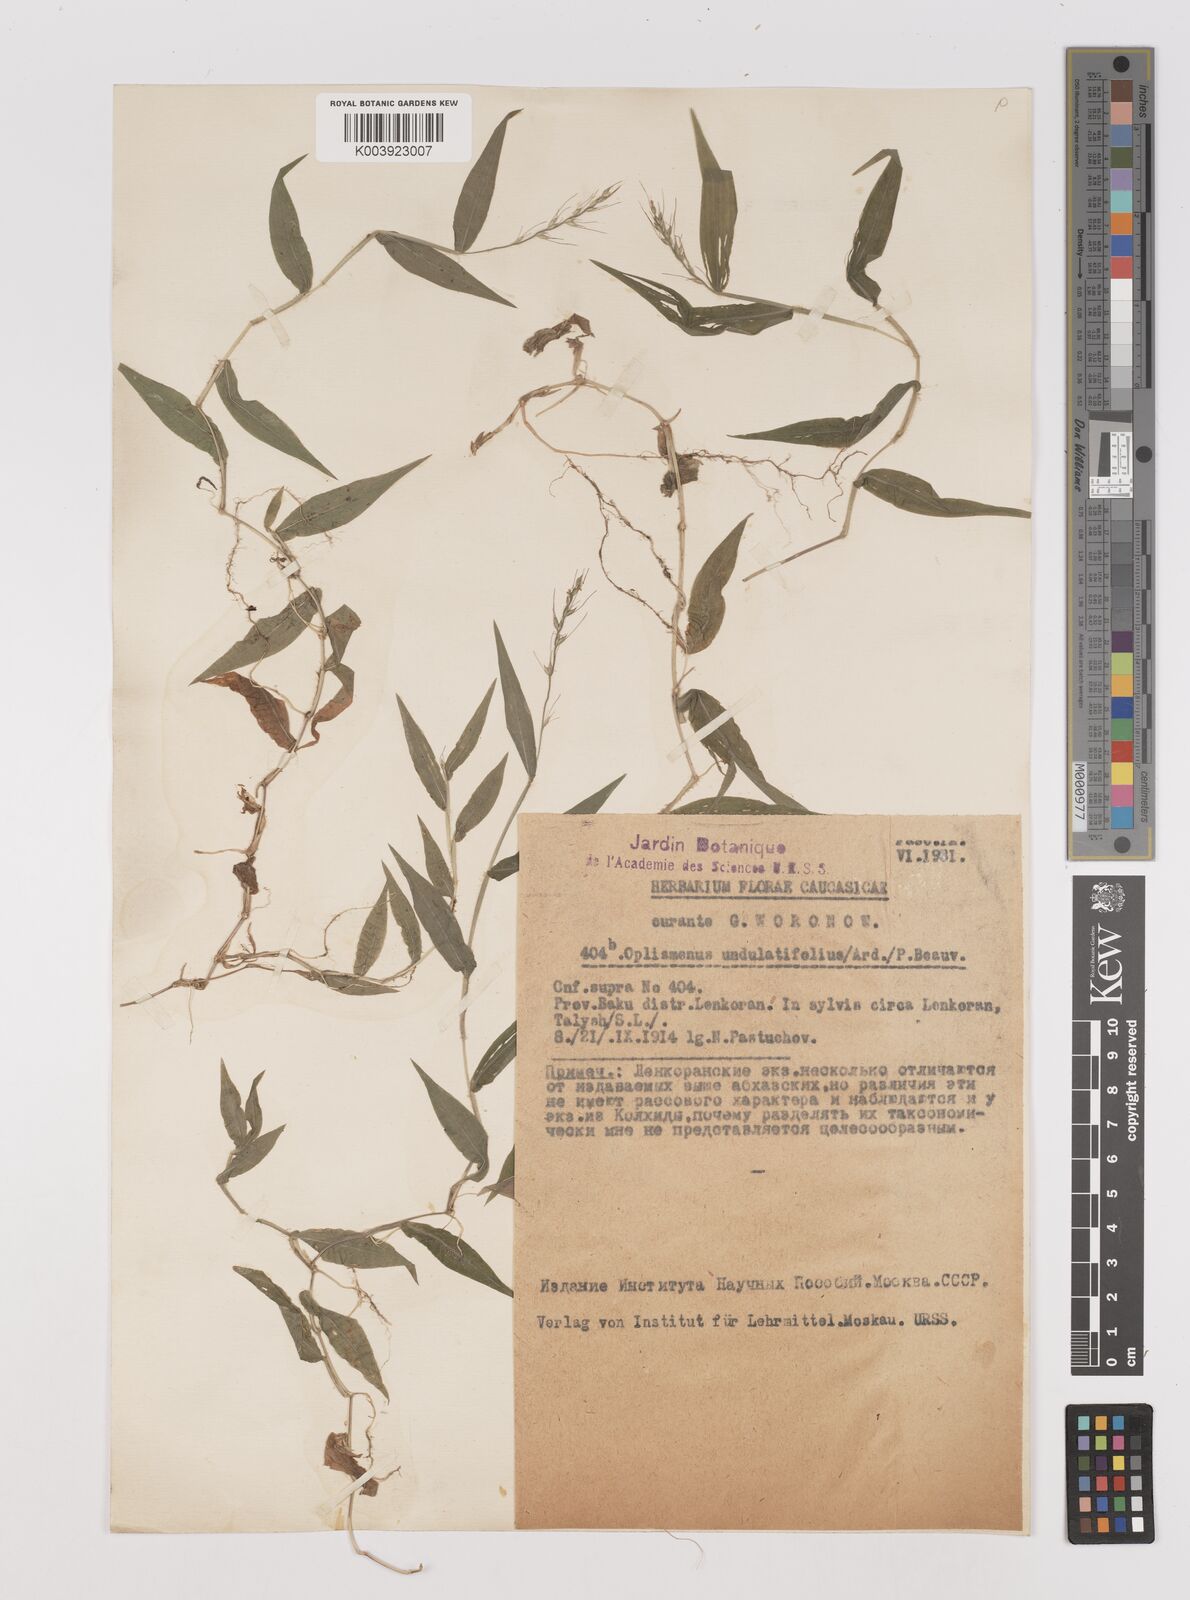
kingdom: Plantae
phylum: Tracheophyta
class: Liliopsida
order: Poales
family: Poaceae
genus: Oplismenus
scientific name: Oplismenus undulatifolius
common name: Wavyleaf basketgrass
